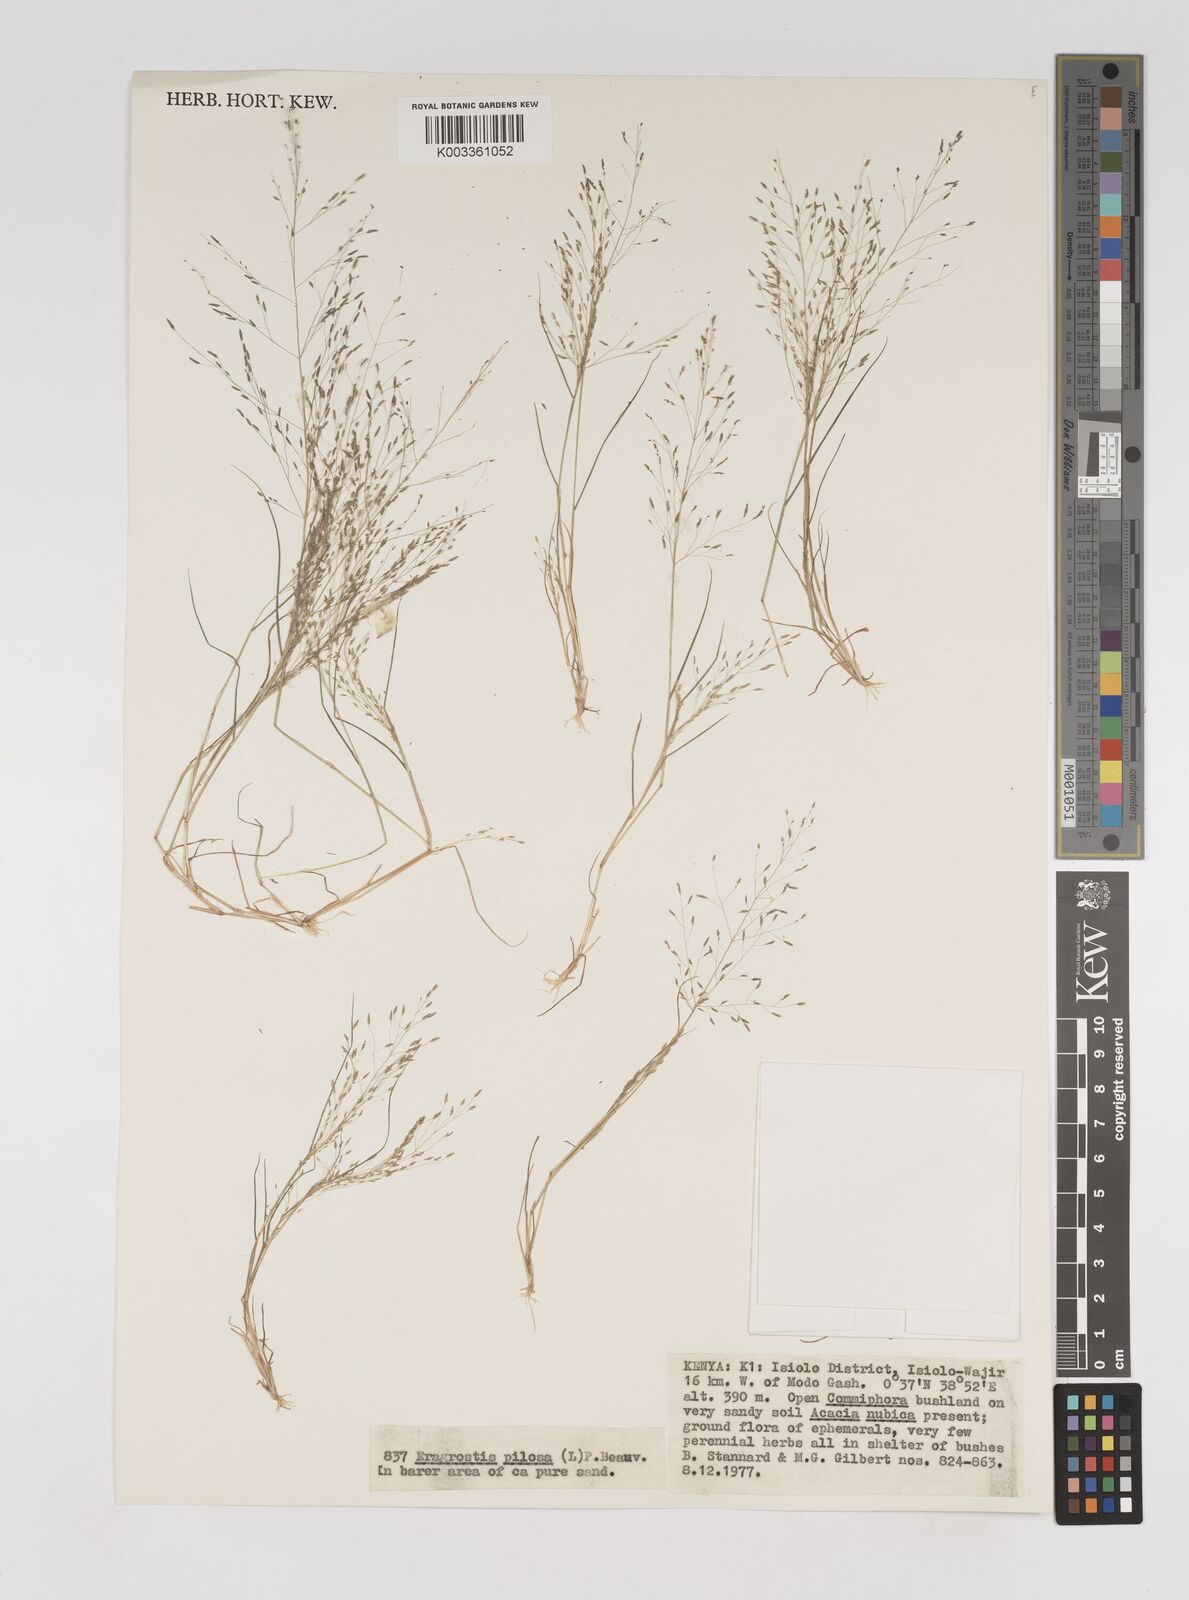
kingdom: Plantae
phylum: Tracheophyta
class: Liliopsida
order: Poales
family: Poaceae
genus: Eragrostis
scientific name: Eragrostis aethiopica
